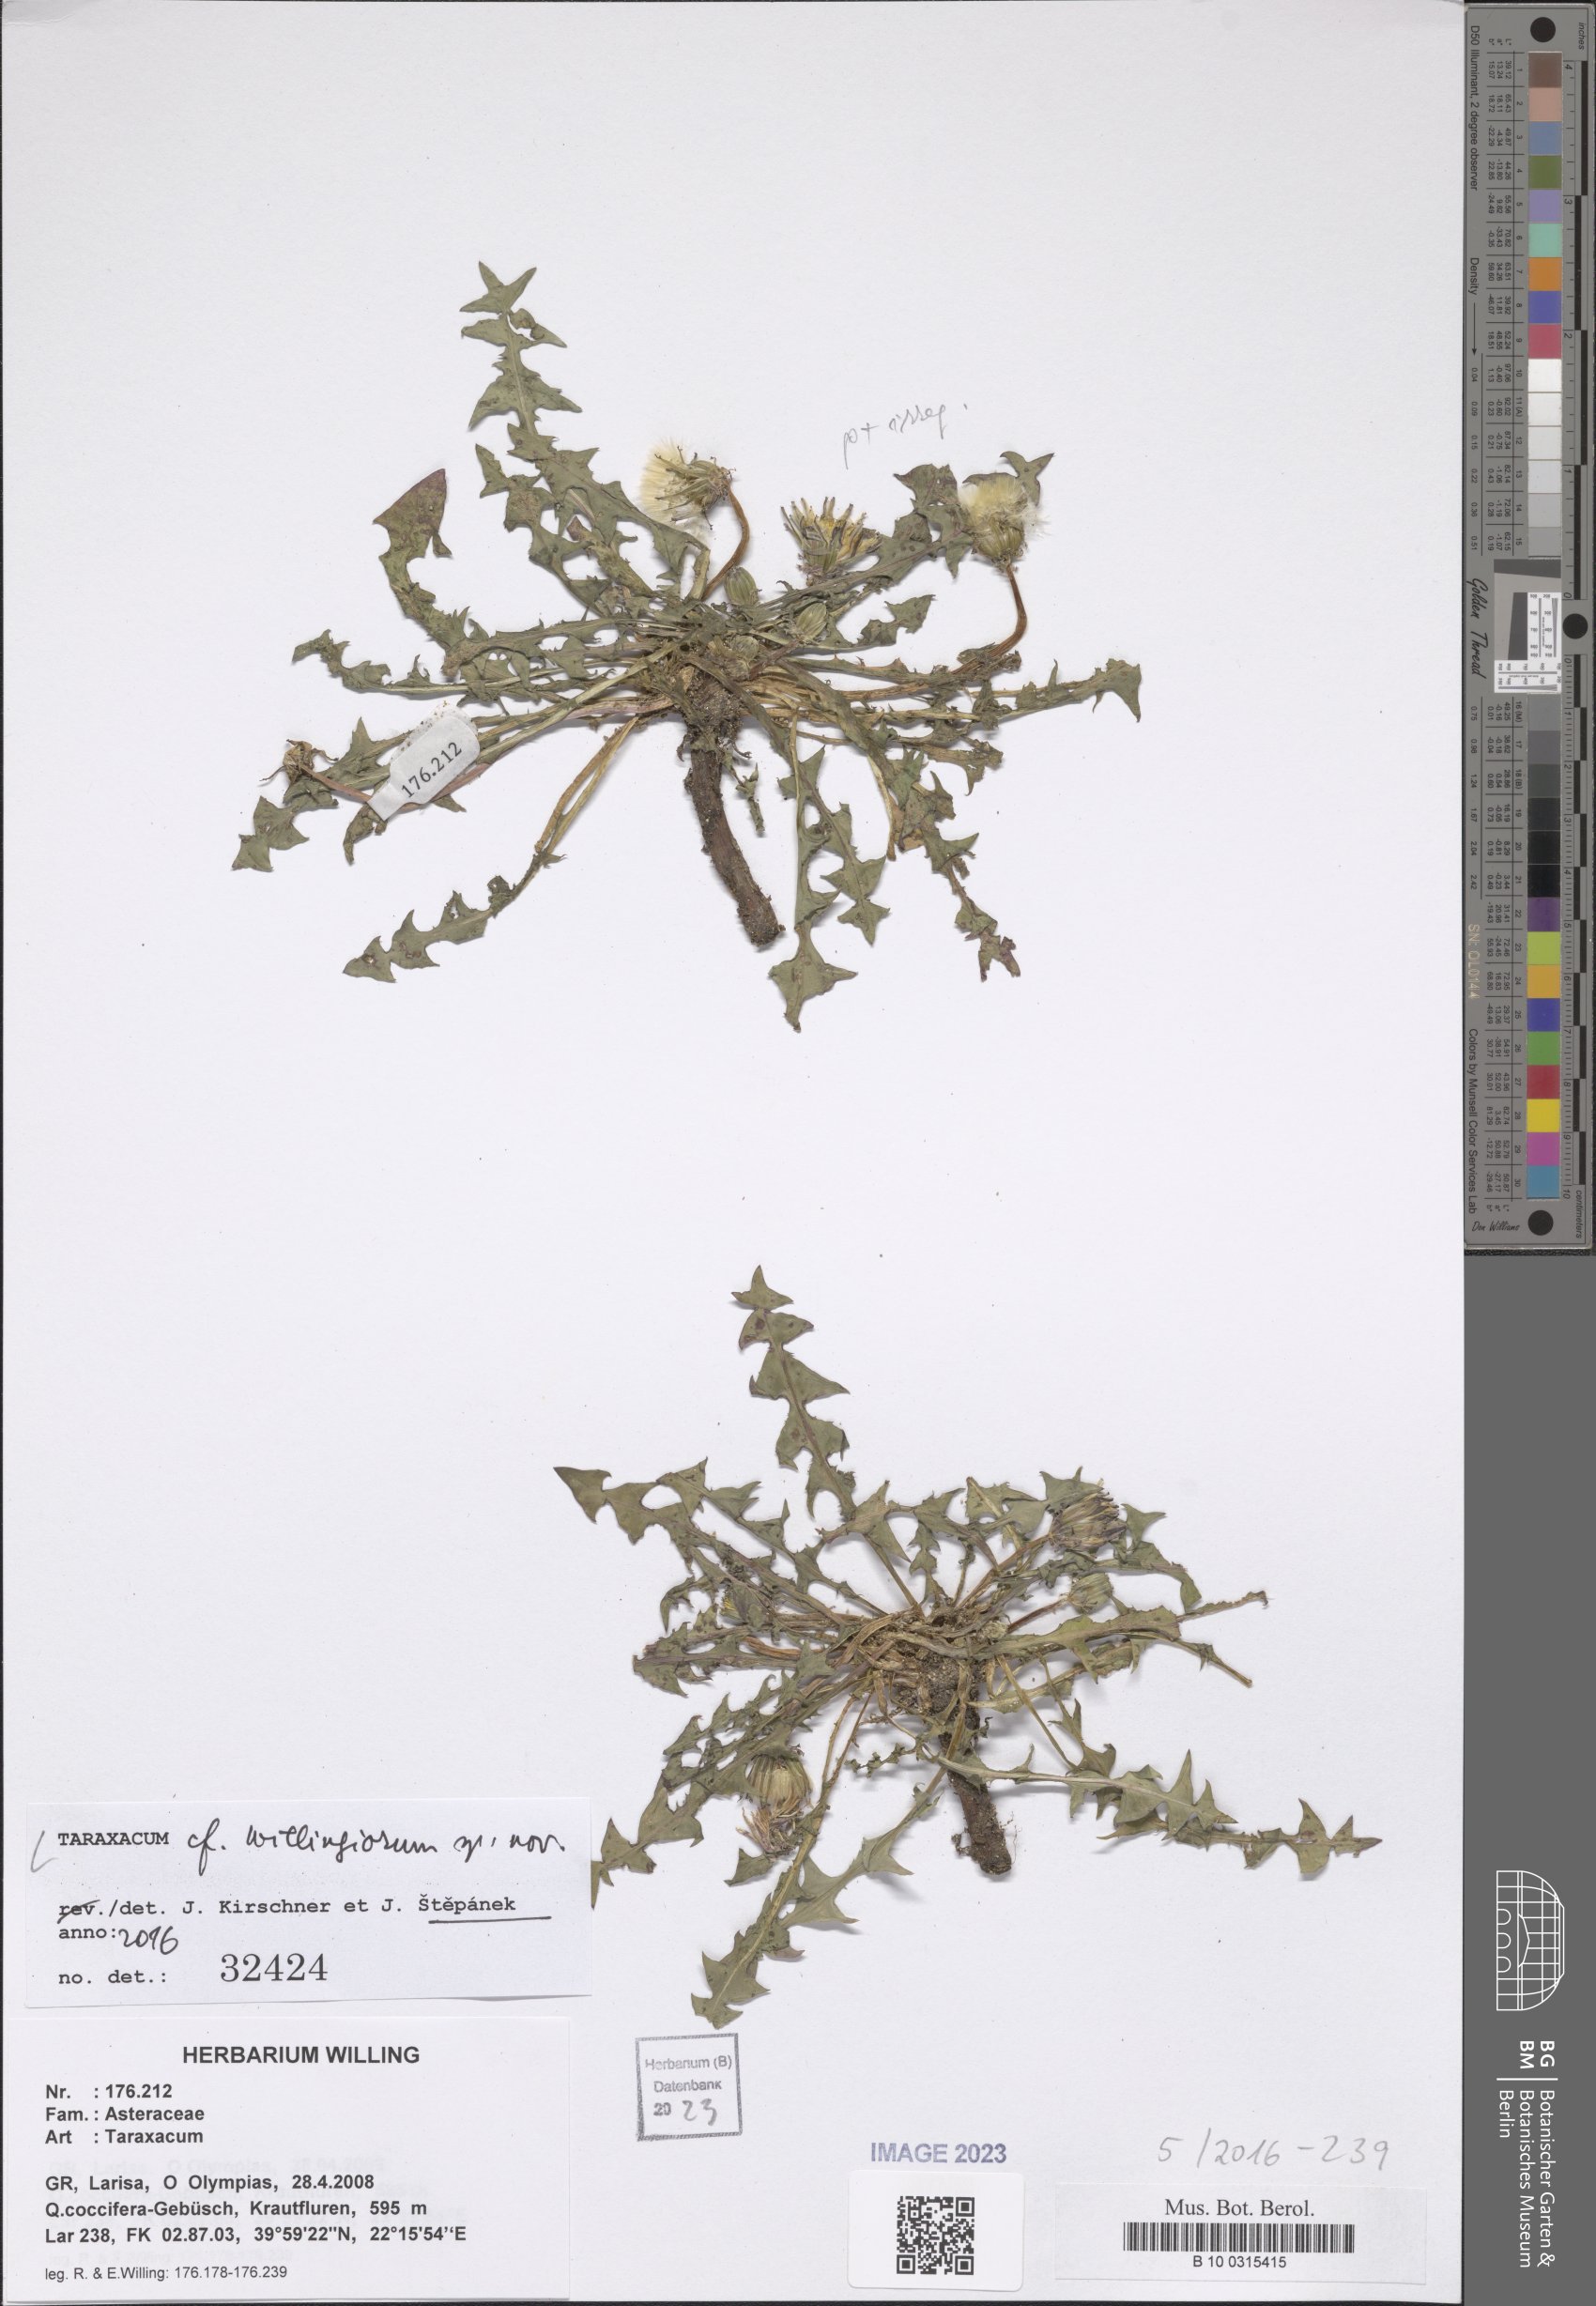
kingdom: Plantae
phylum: Tracheophyta
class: Magnoliopsida
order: Asterales
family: Asteraceae
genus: Taraxacum
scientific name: Taraxacum
